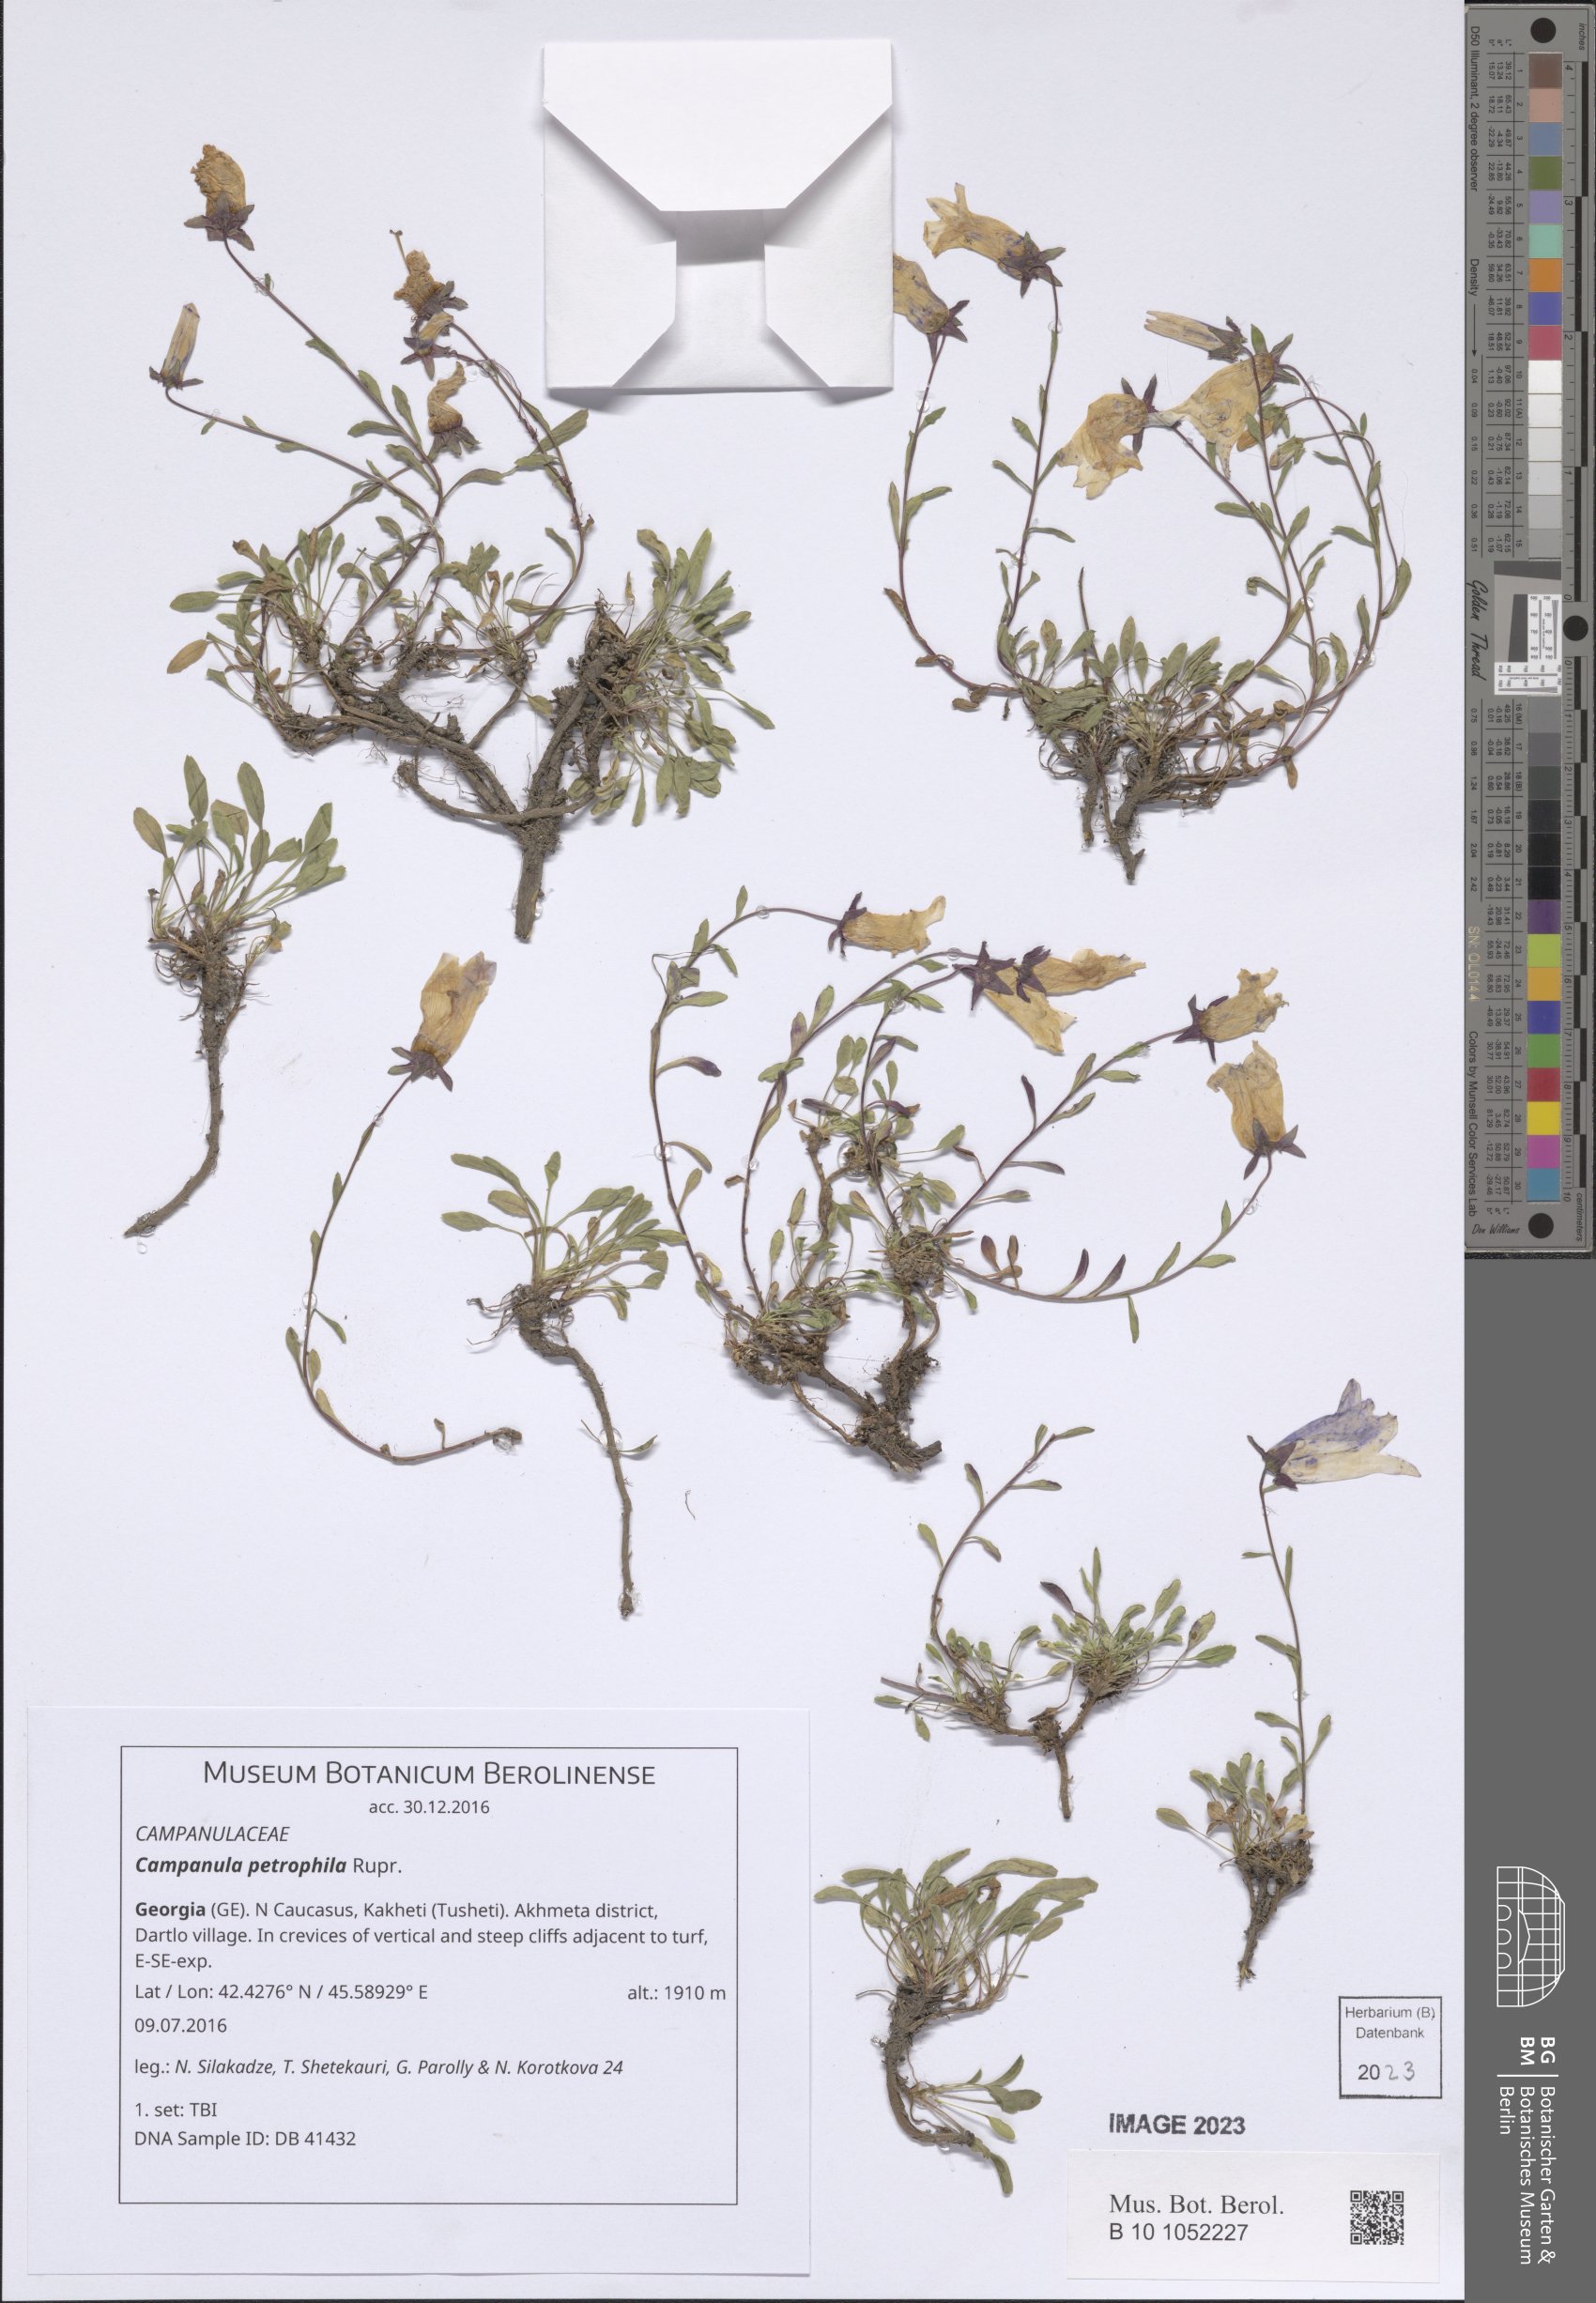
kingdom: Plantae
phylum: Tracheophyta
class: Magnoliopsida
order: Asterales
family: Campanulaceae
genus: Campanula
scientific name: Campanula petrophila
